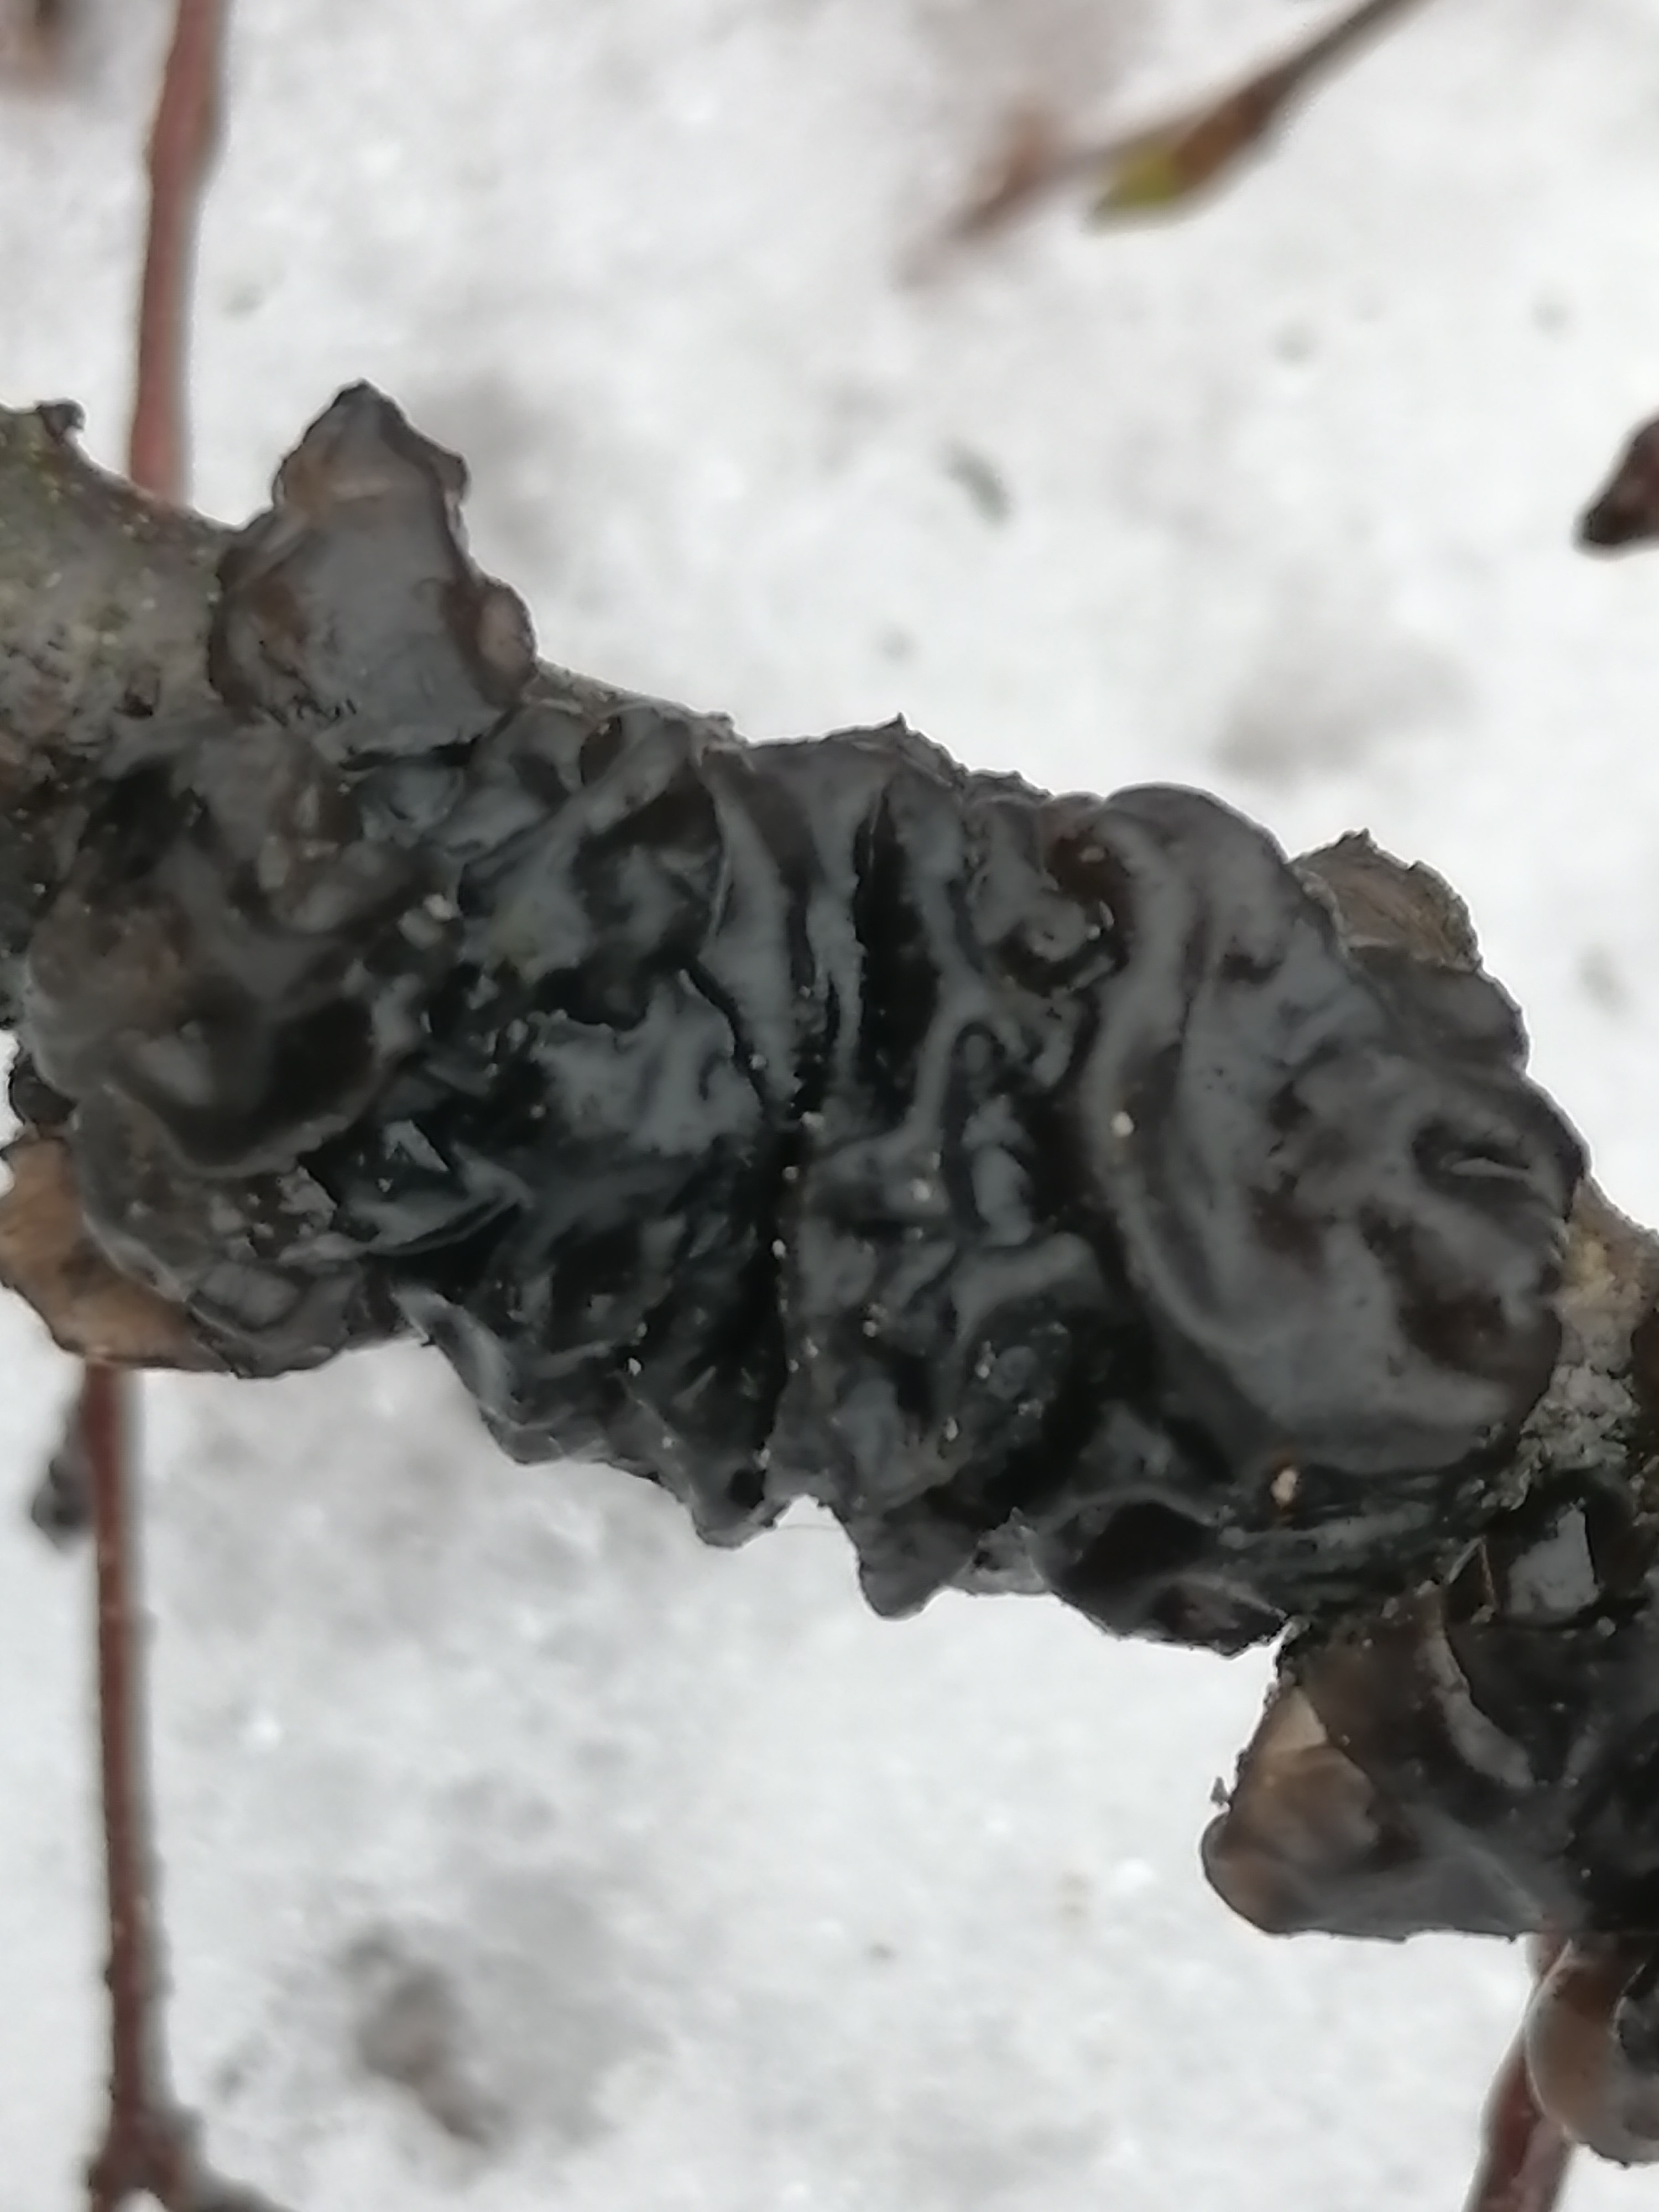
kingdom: Fungi
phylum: Basidiomycota
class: Agaricomycetes
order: Auriculariales
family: Auriculariaceae
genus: Exidia
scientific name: Exidia nigricans
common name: almindelig bævretop
